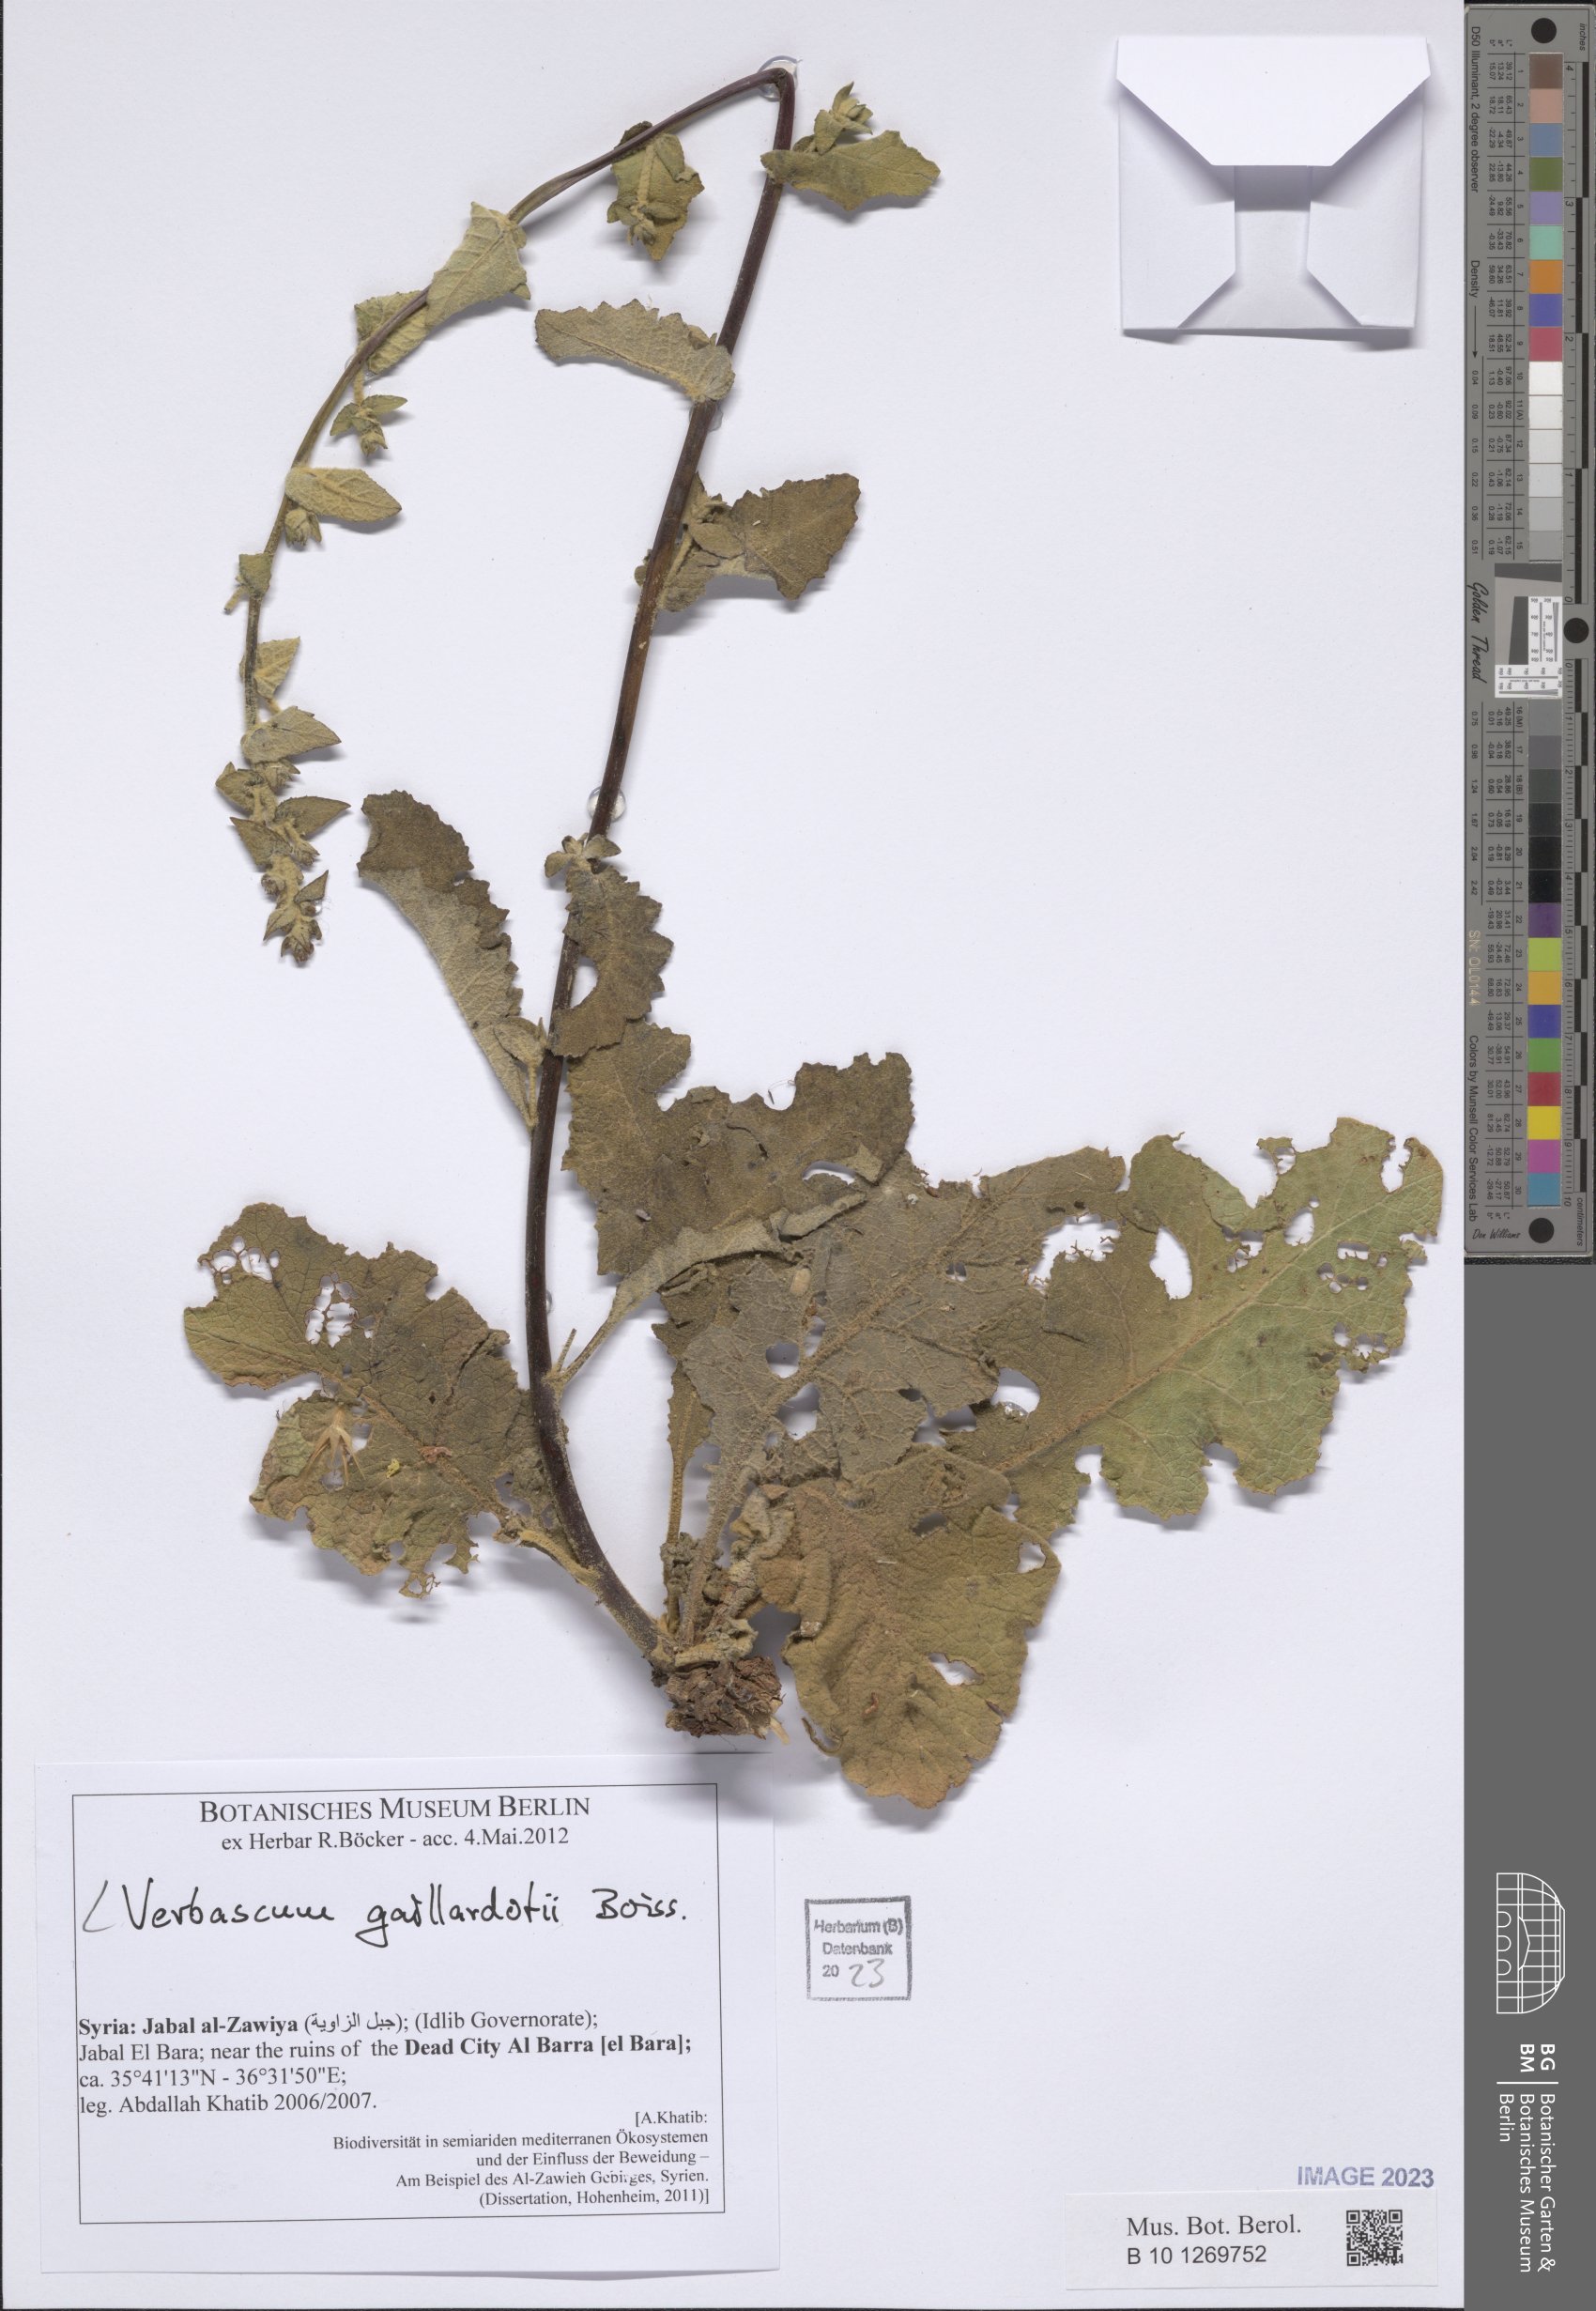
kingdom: Plantae
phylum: Tracheophyta
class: Magnoliopsida
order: Lamiales
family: Scrophulariaceae
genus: Verbascum
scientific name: Verbascum gaillardotii
